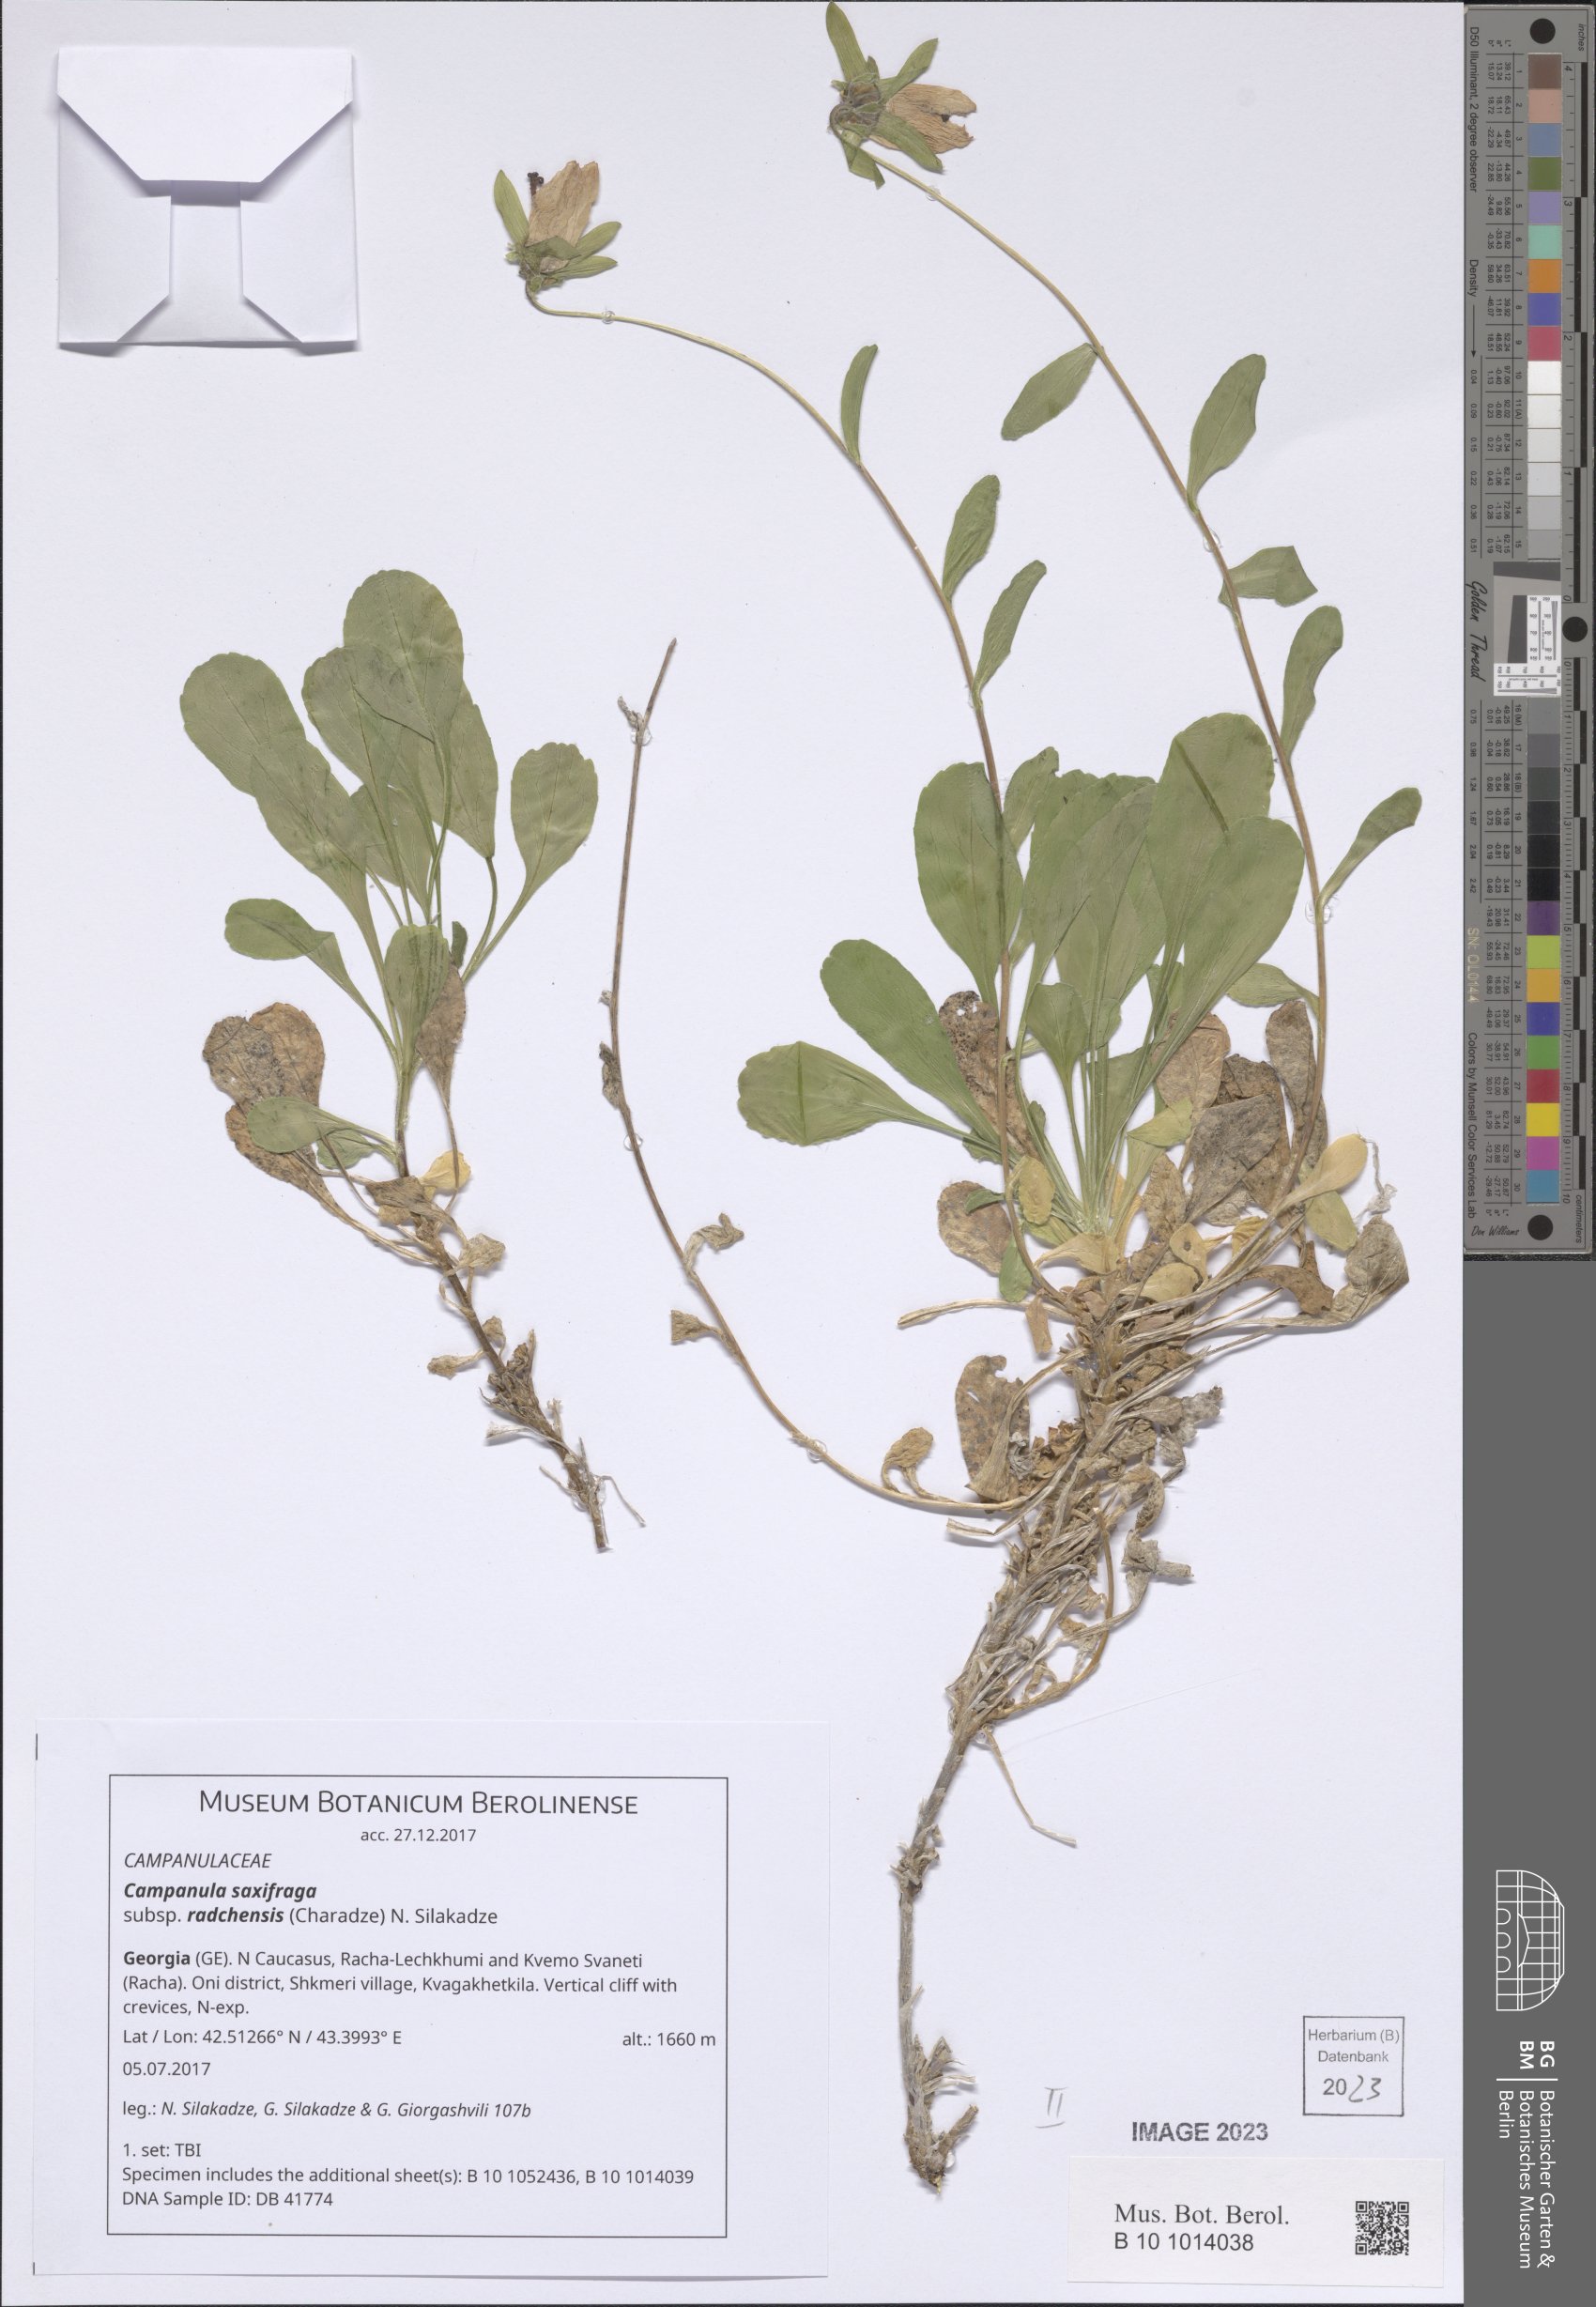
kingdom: Plantae
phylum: Tracheophyta
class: Magnoliopsida
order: Asterales
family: Campanulaceae
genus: Campanula
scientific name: Campanula saxifraga
